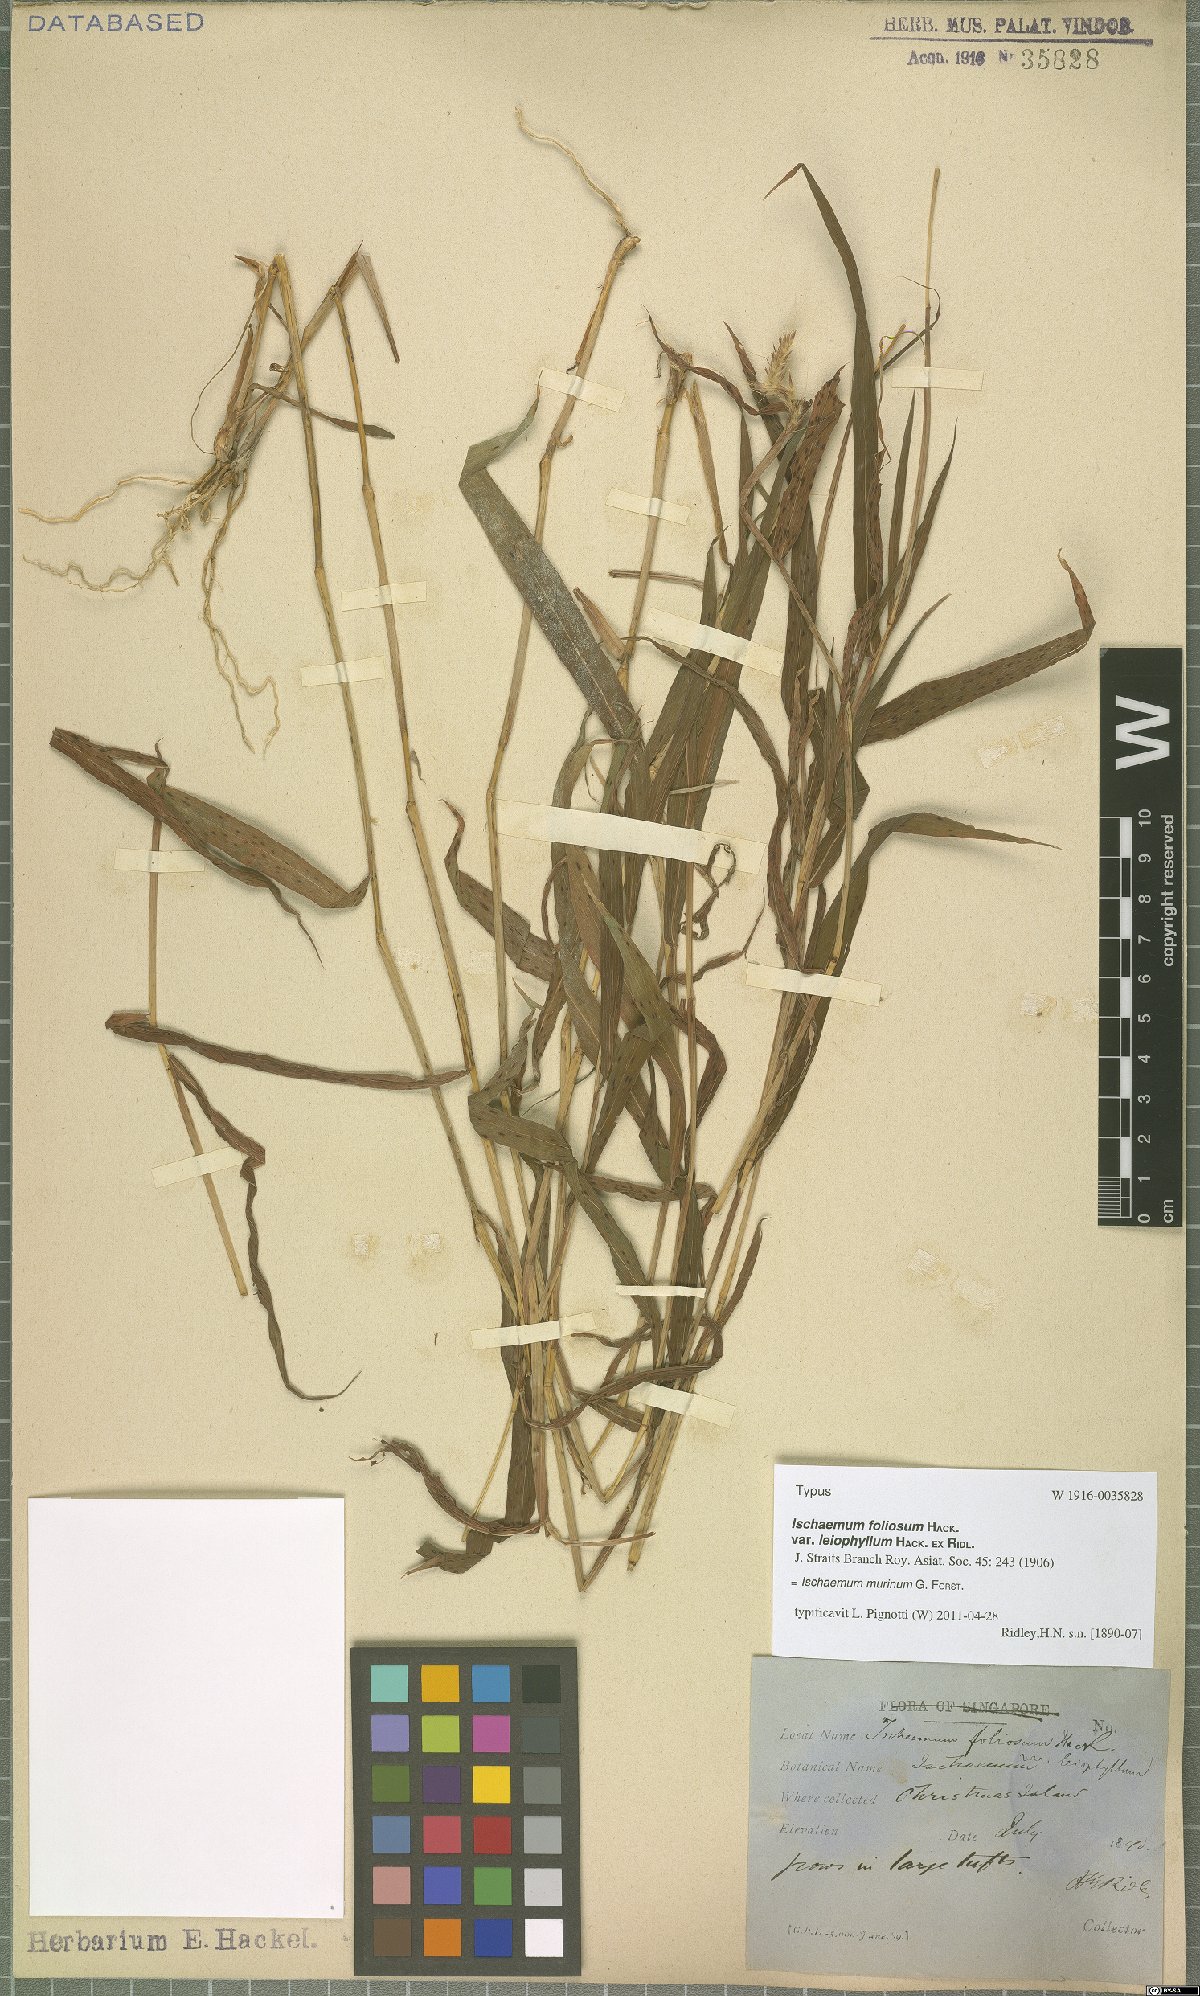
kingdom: Plantae
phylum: Tracheophyta
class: Liliopsida
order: Poales
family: Poaceae
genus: Ischaemum
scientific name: Ischaemum murinum
